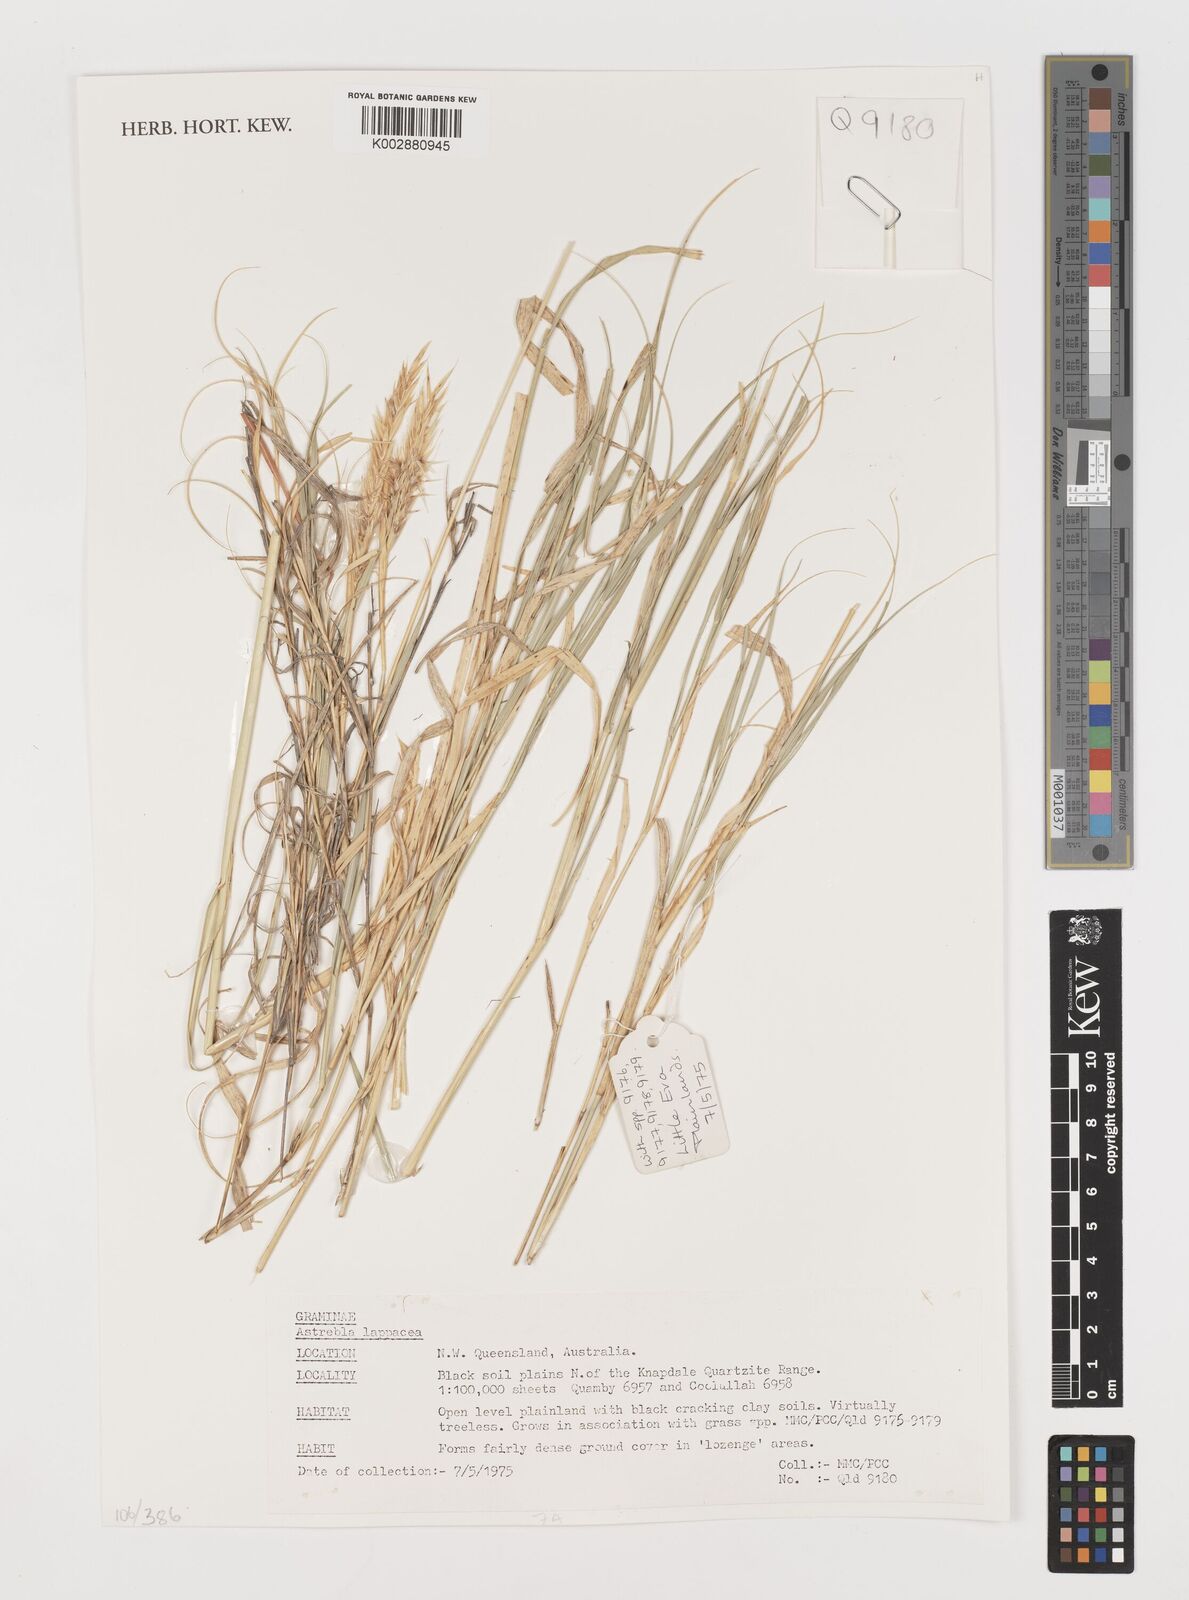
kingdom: Plantae
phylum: Tracheophyta
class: Liliopsida
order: Poales
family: Poaceae
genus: Astrebla
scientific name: Astrebla lappacea
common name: Curly mitchell grass
